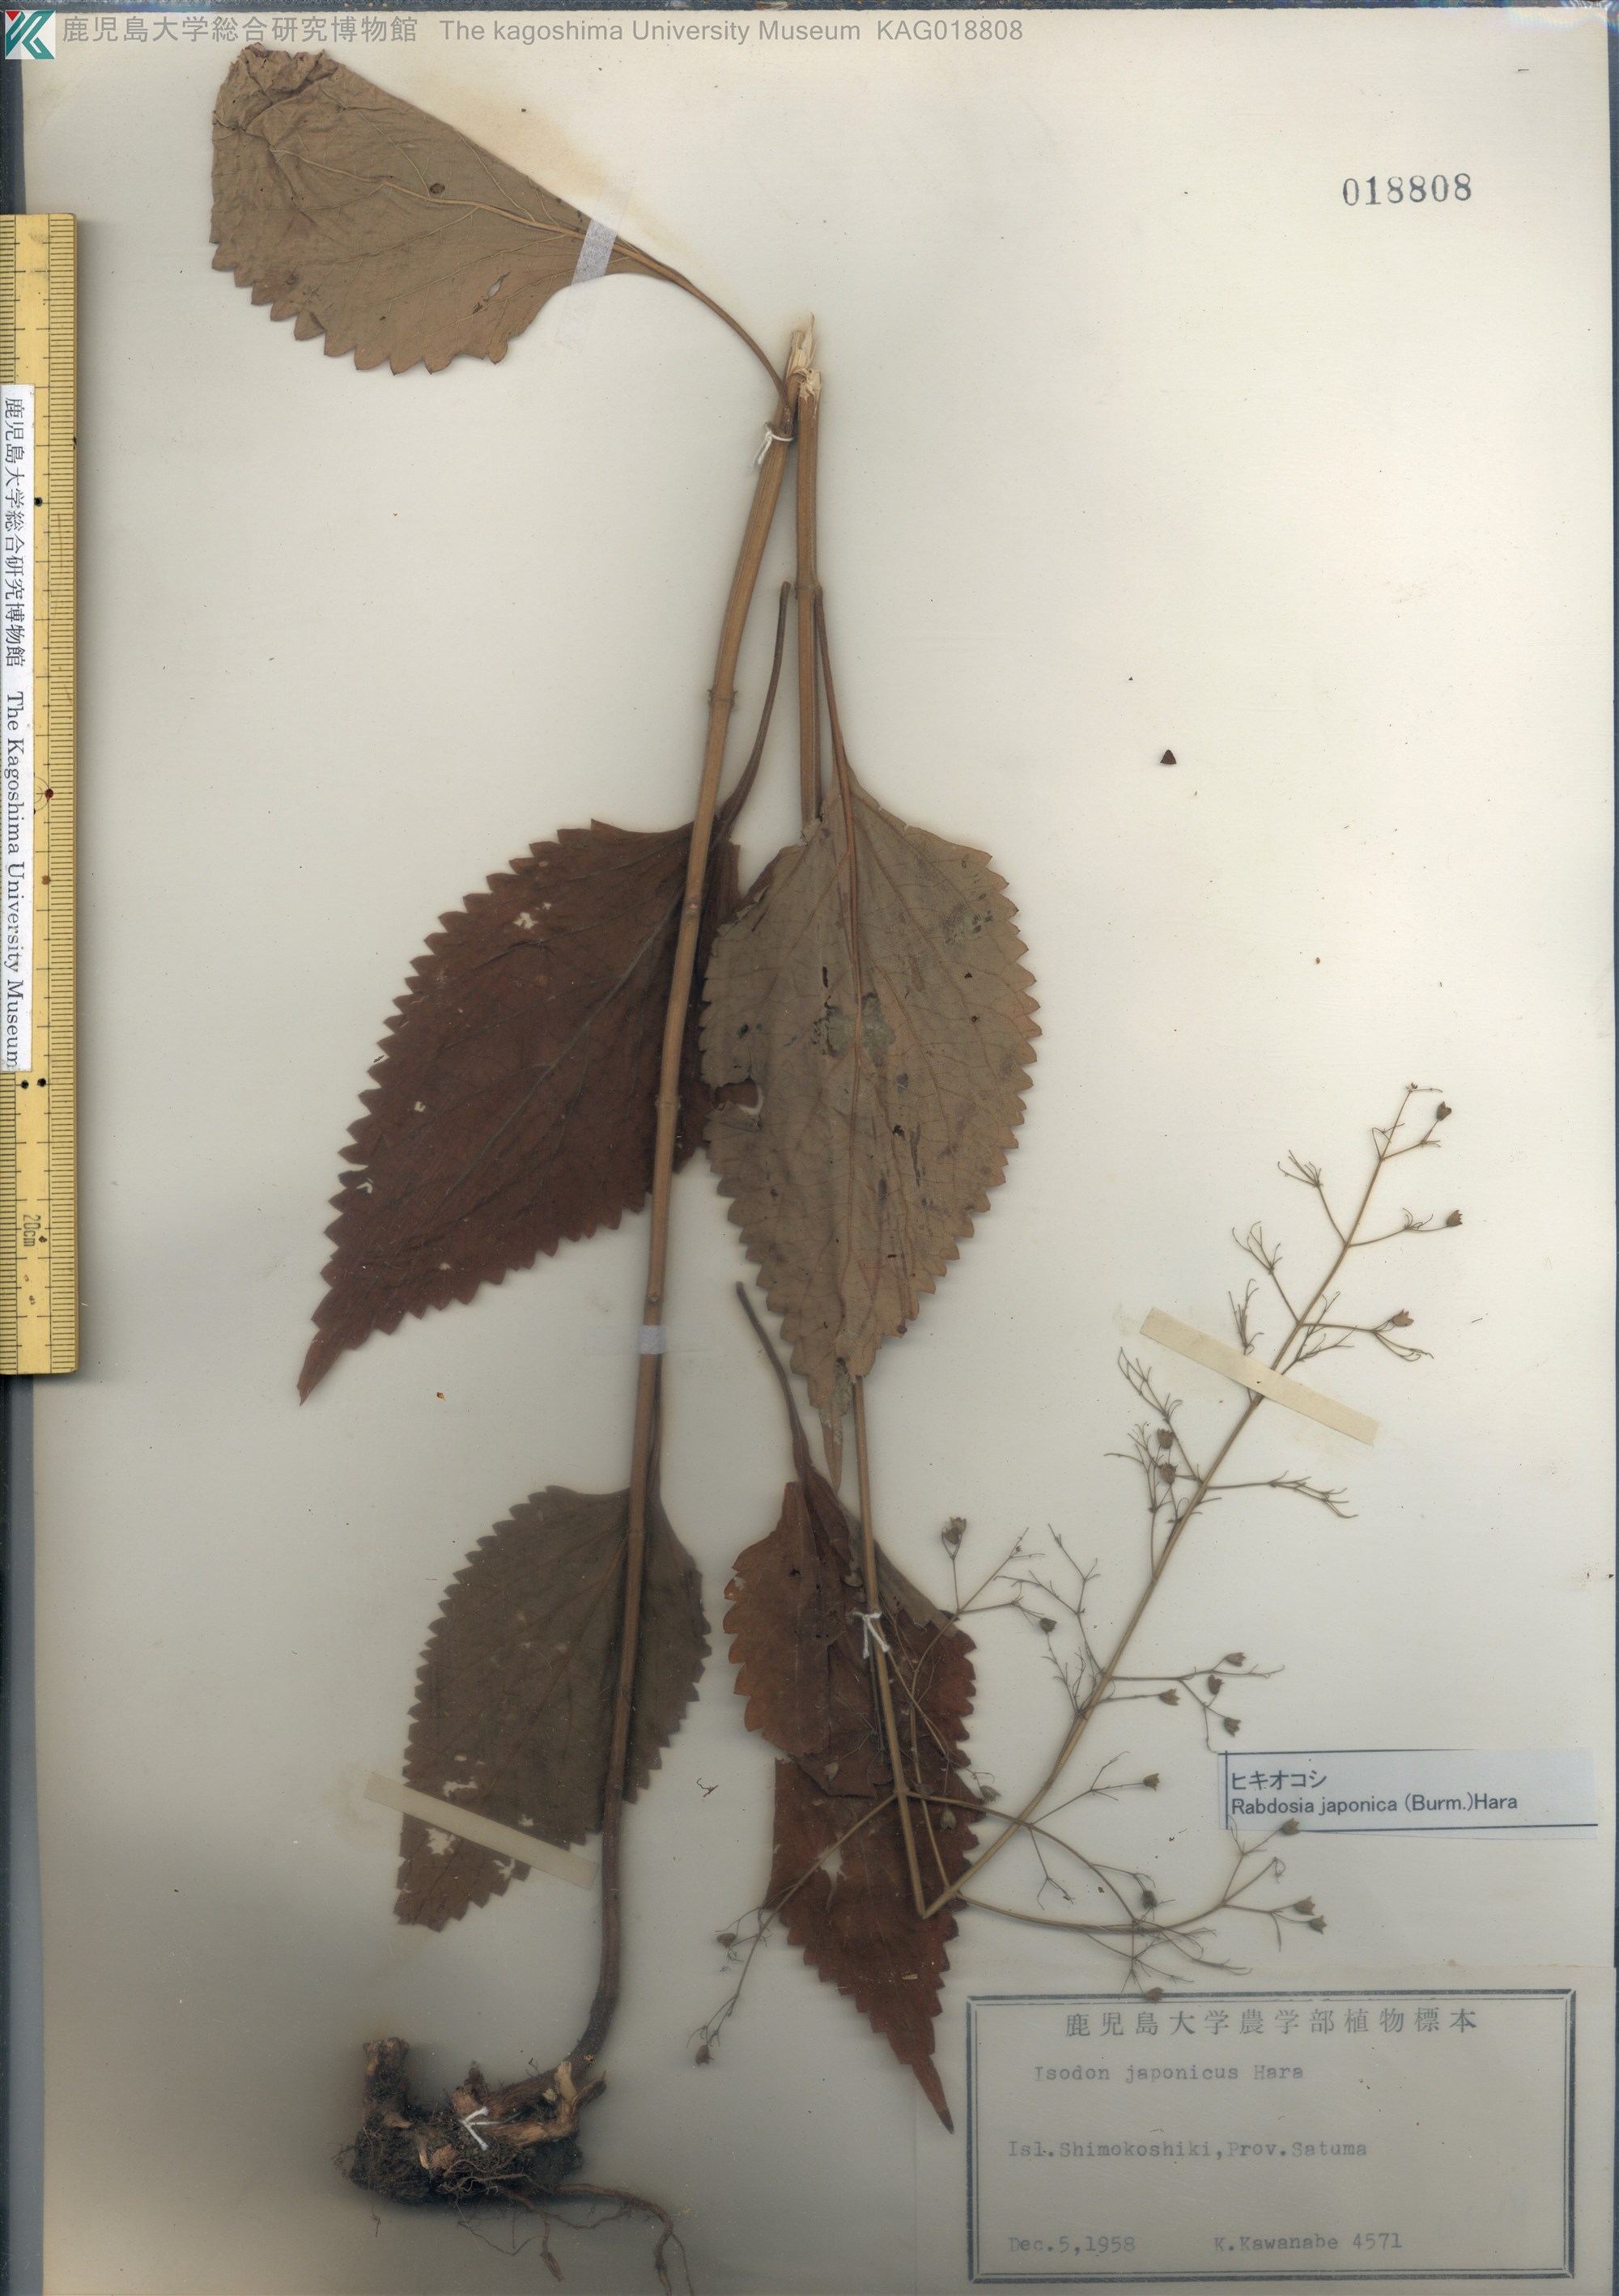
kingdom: Plantae
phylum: Tracheophyta
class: Magnoliopsida
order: Lamiales
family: Lamiaceae
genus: Isodon
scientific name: Isodon japonicus
